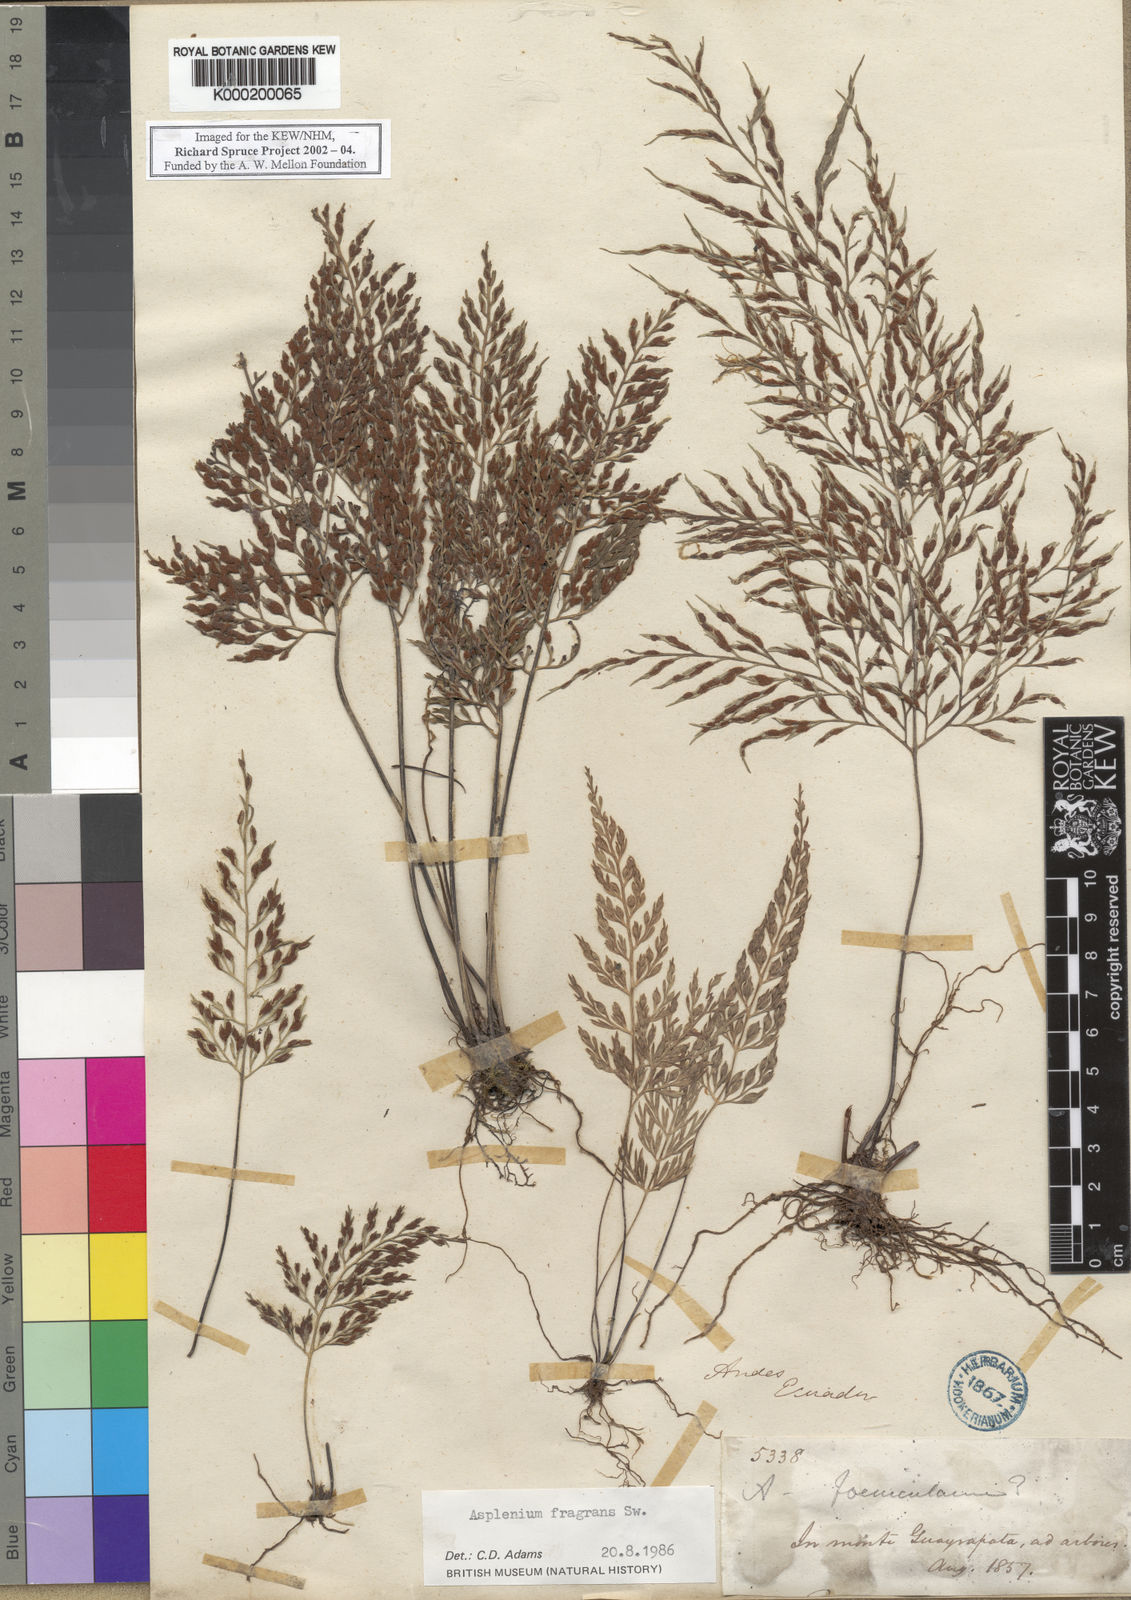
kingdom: Plantae
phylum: Tracheophyta
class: Polypodiopsida
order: Polypodiales
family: Aspleniaceae
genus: Asplenium
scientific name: Asplenium fragrans
